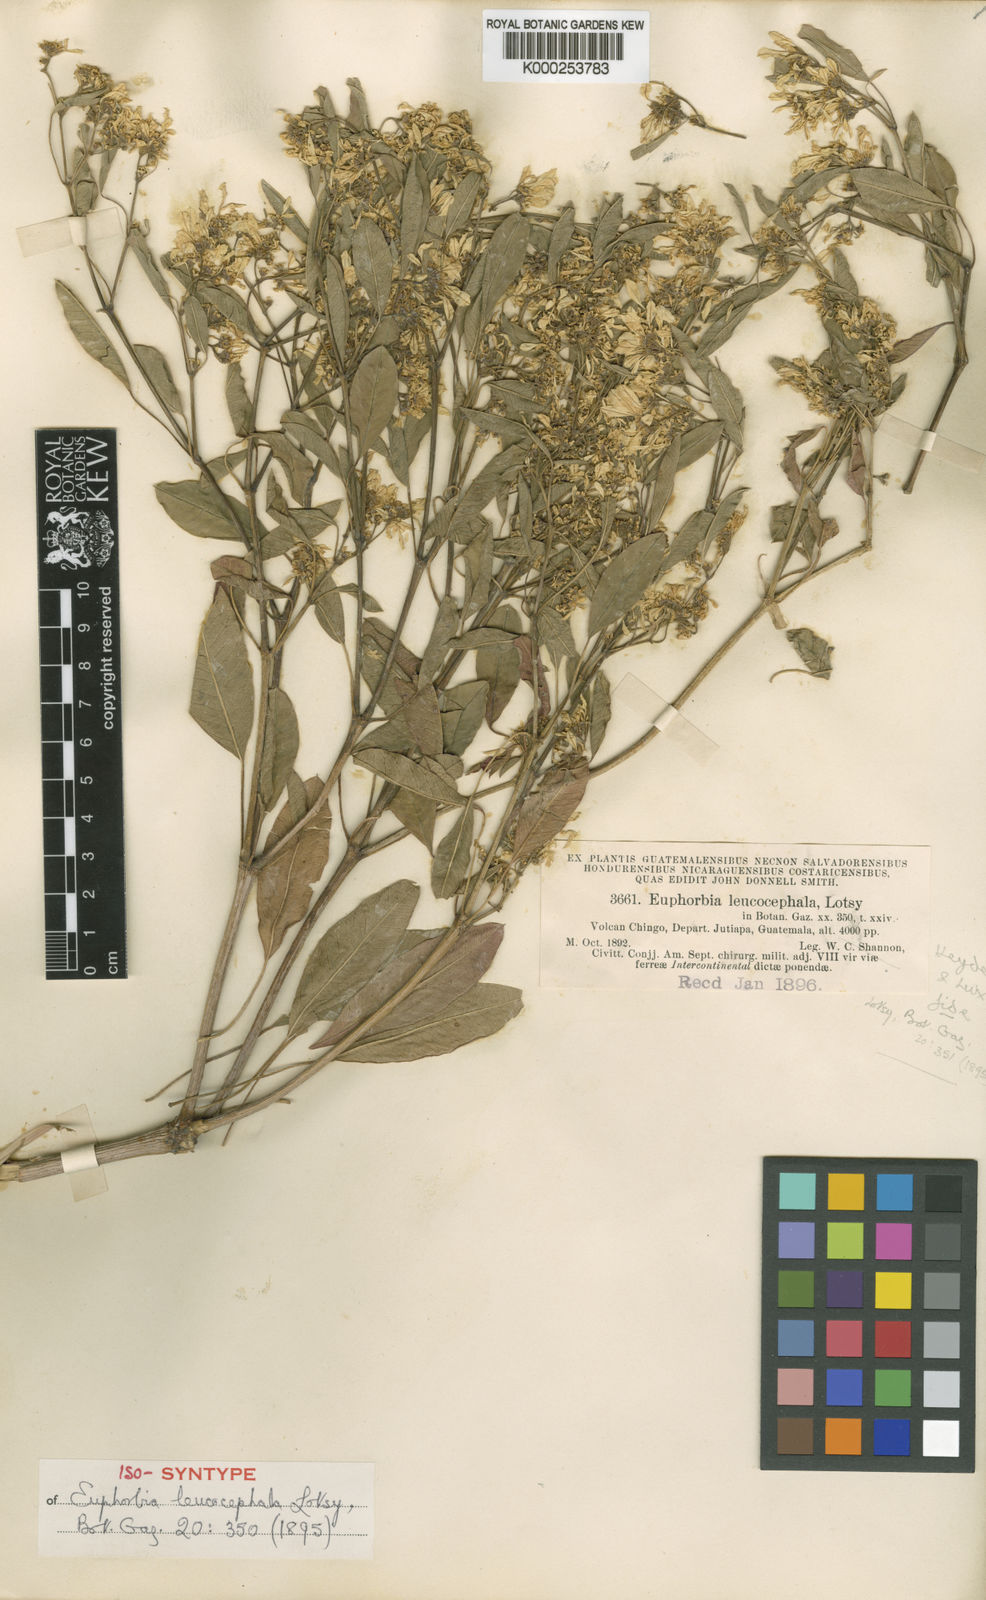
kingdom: Plantae
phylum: Tracheophyta
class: Magnoliopsida
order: Malpighiales
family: Euphorbiaceae
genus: Euphorbia
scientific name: Euphorbia leucocephala
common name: Pascuita
